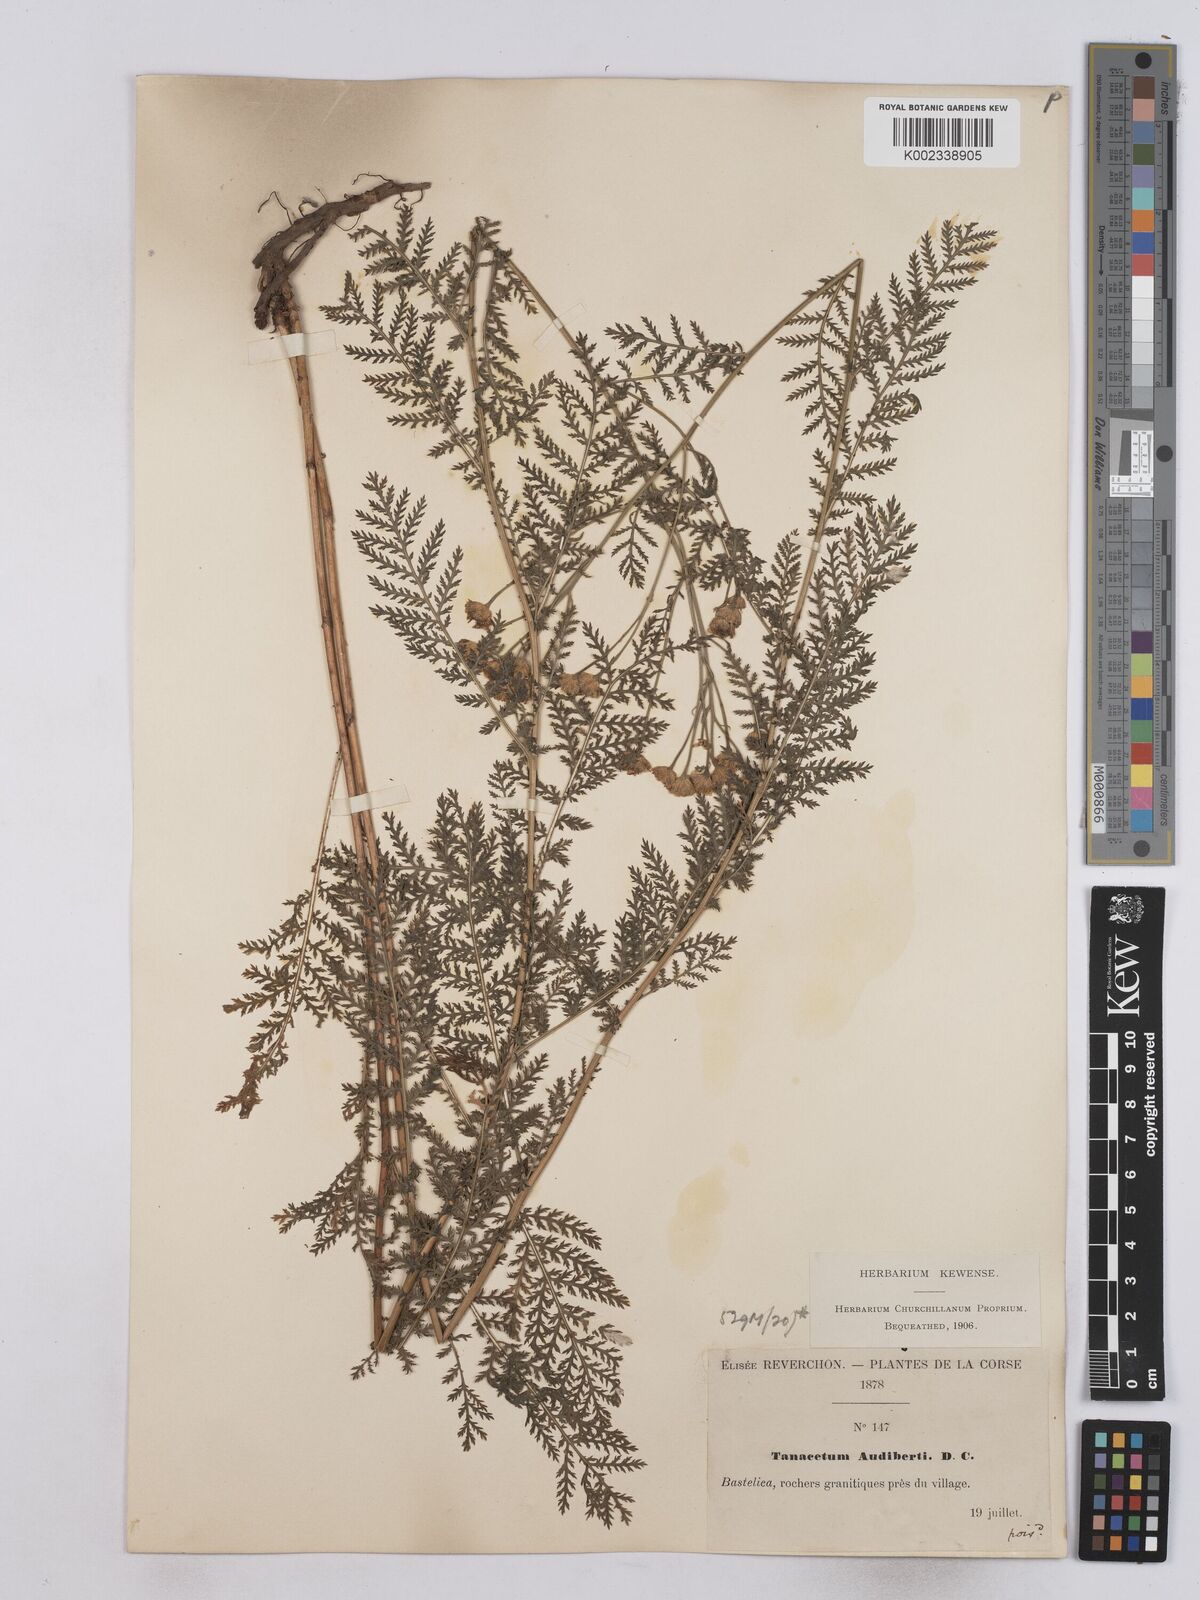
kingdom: Plantae
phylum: Tracheophyta
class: Magnoliopsida
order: Asterales
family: Asteraceae
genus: Tanacetum
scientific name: Tanacetum audibertii
